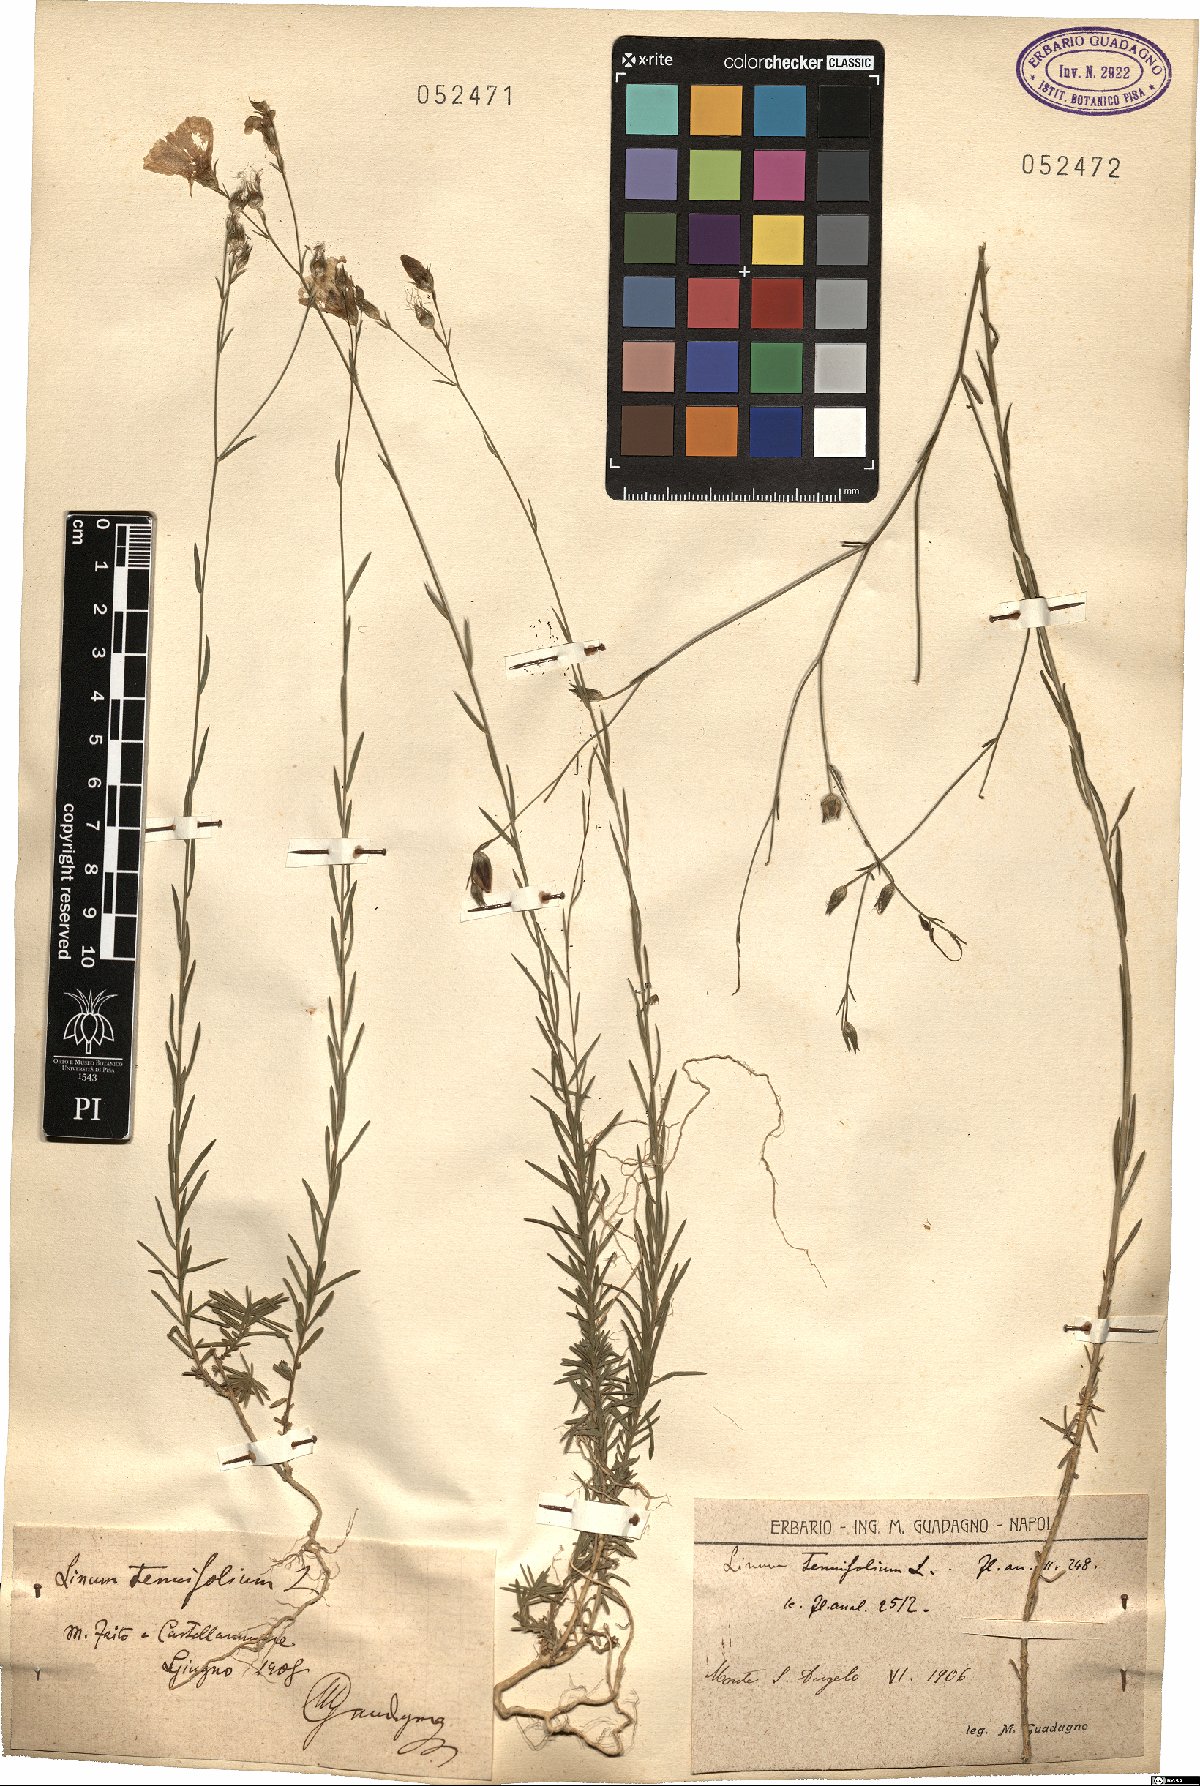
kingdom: Plantae
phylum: Tracheophyta
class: Magnoliopsida
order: Malpighiales
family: Linaceae
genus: Linum
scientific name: Linum tenuifolium
